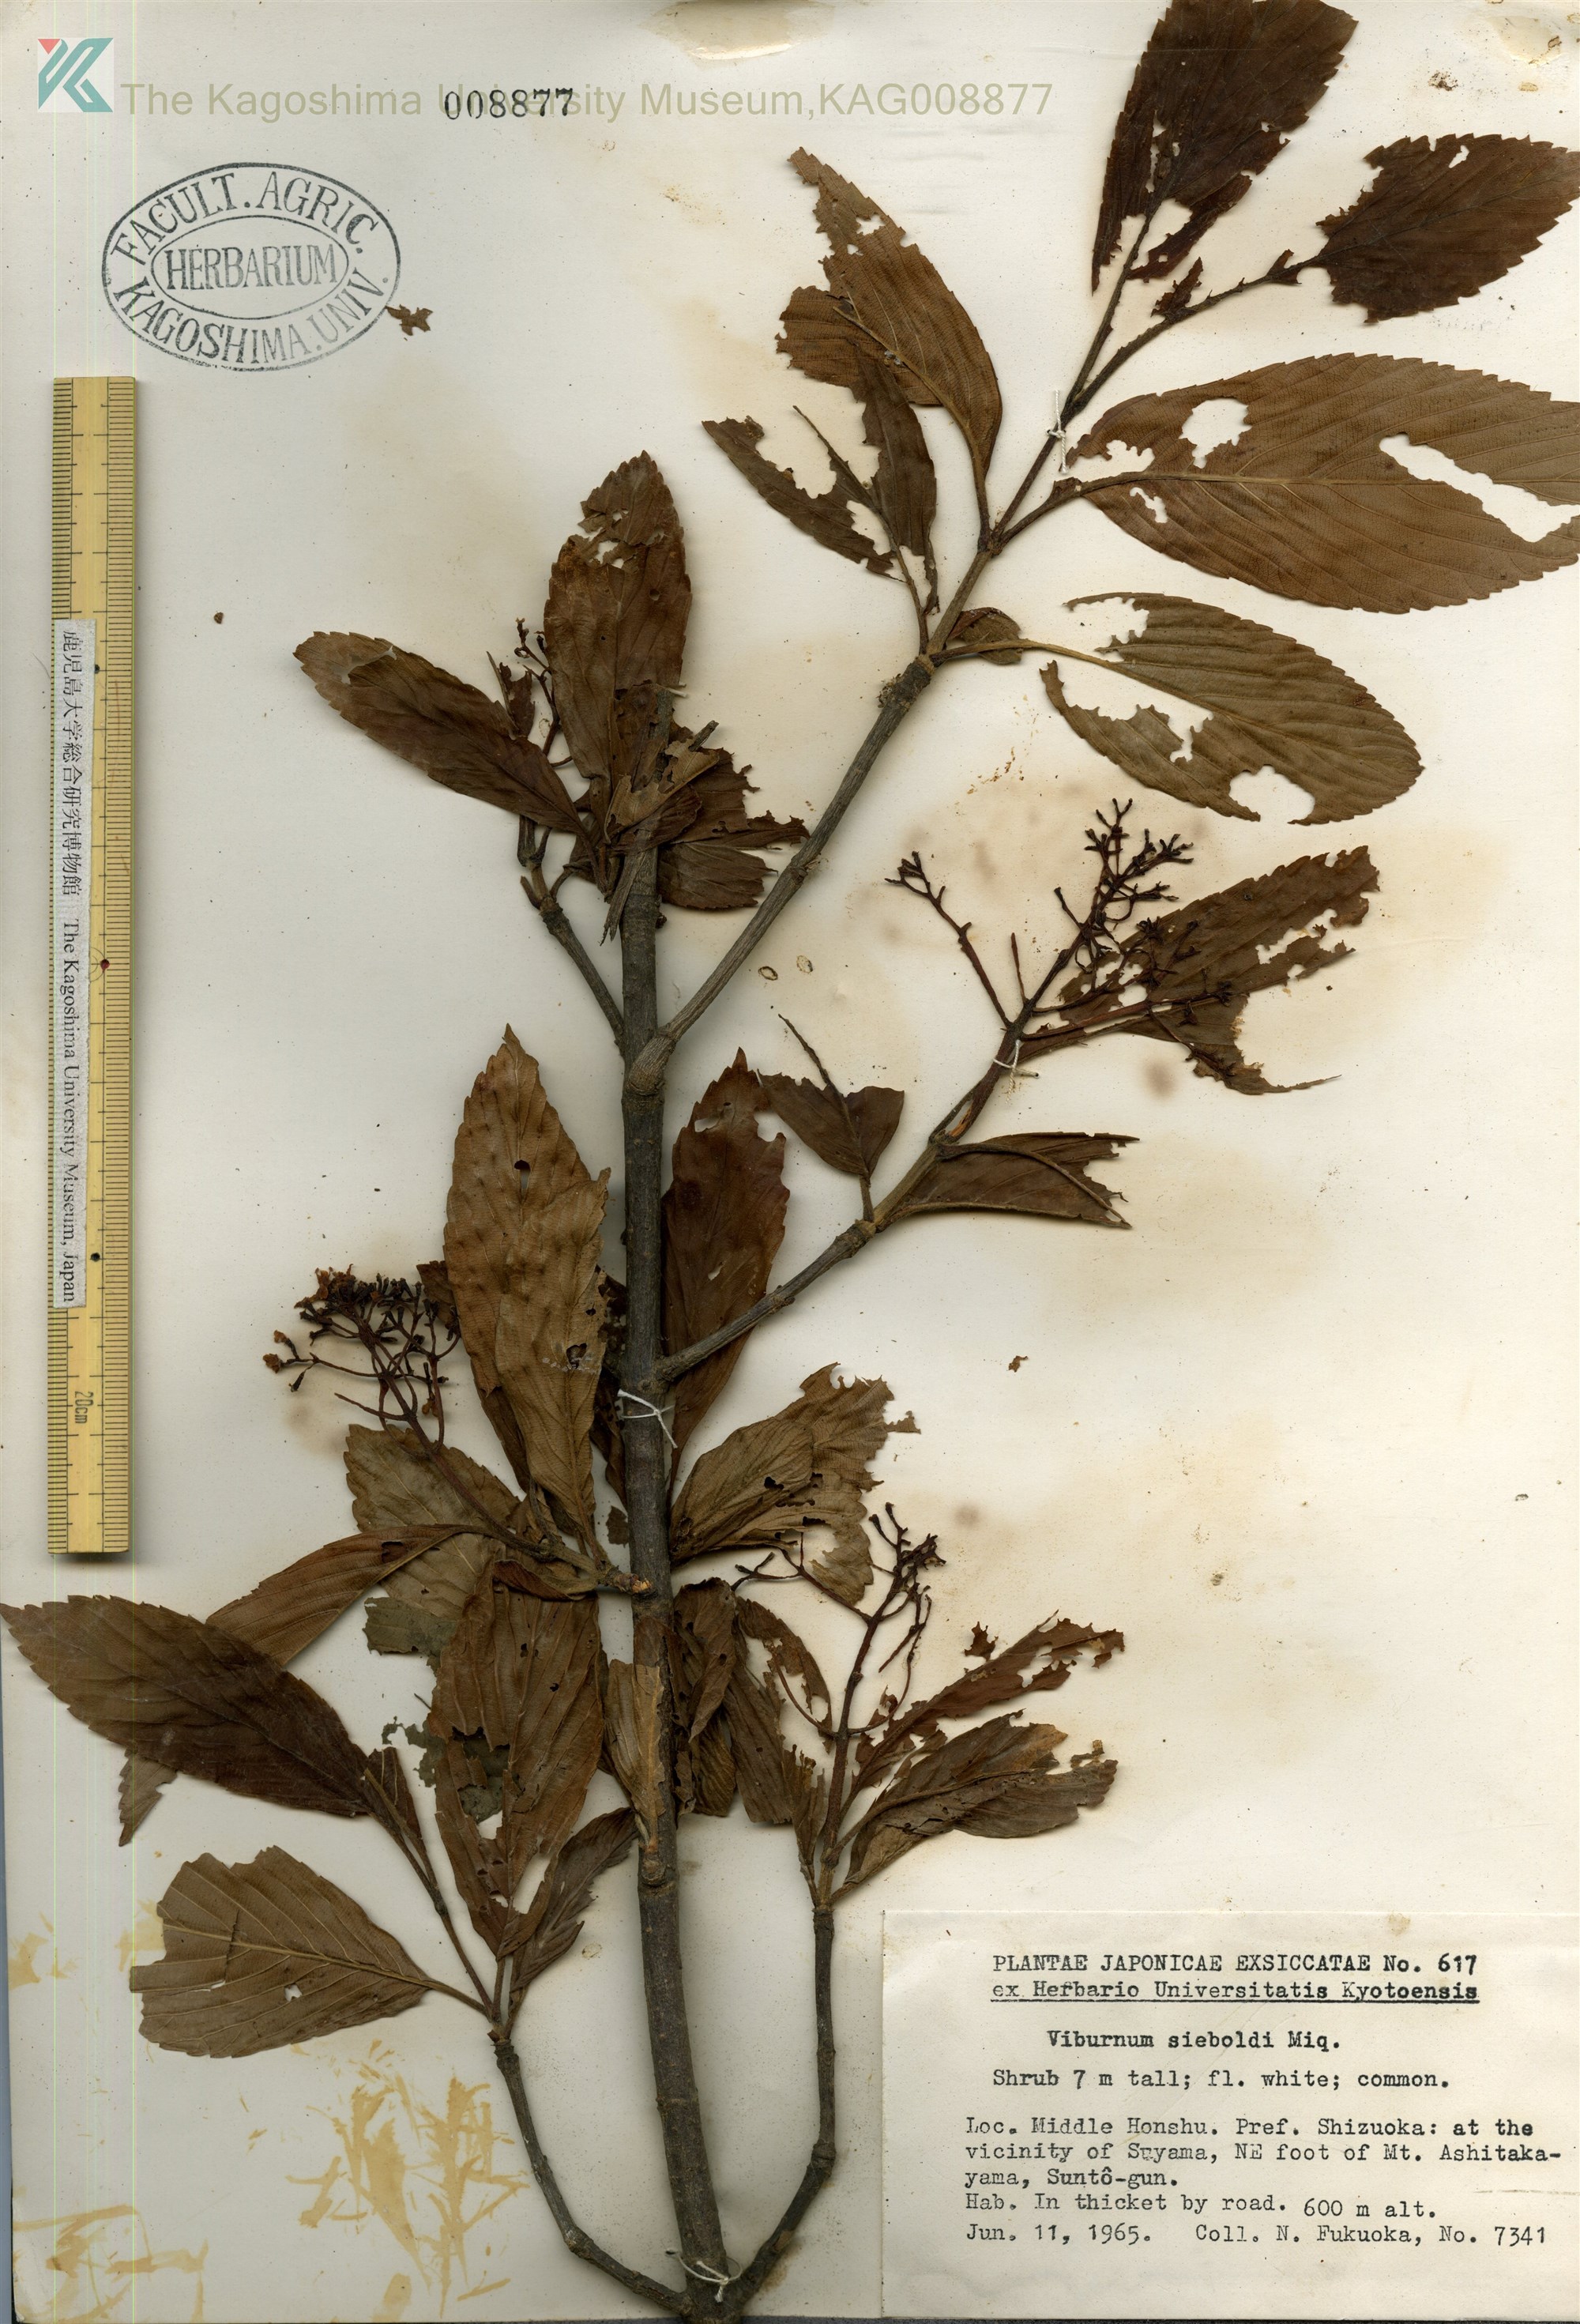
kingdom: Plantae
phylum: Tracheophyta
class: Magnoliopsida
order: Dipsacales
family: Viburnaceae
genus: Viburnum
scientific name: Viburnum sieboldii
